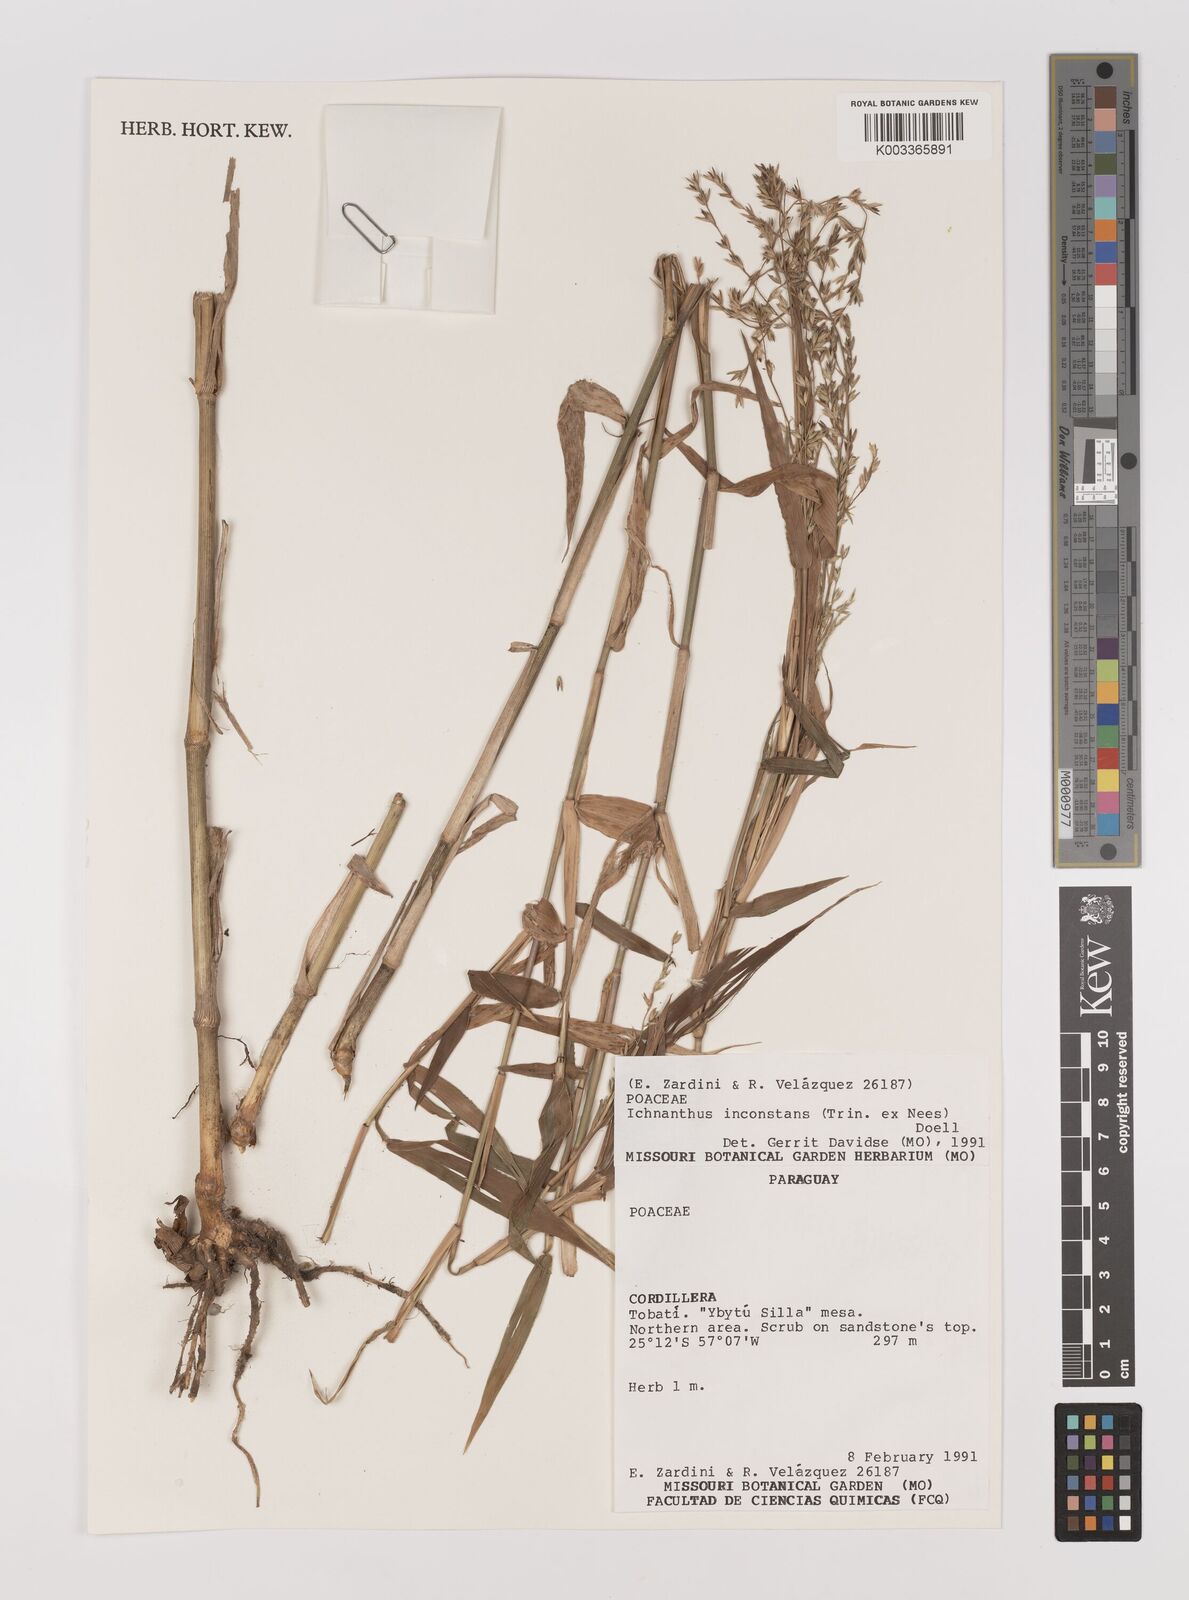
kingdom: Plantae
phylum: Tracheophyta
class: Liliopsida
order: Poales
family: Poaceae
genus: Ichnanthus
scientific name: Ichnanthus inconstans
